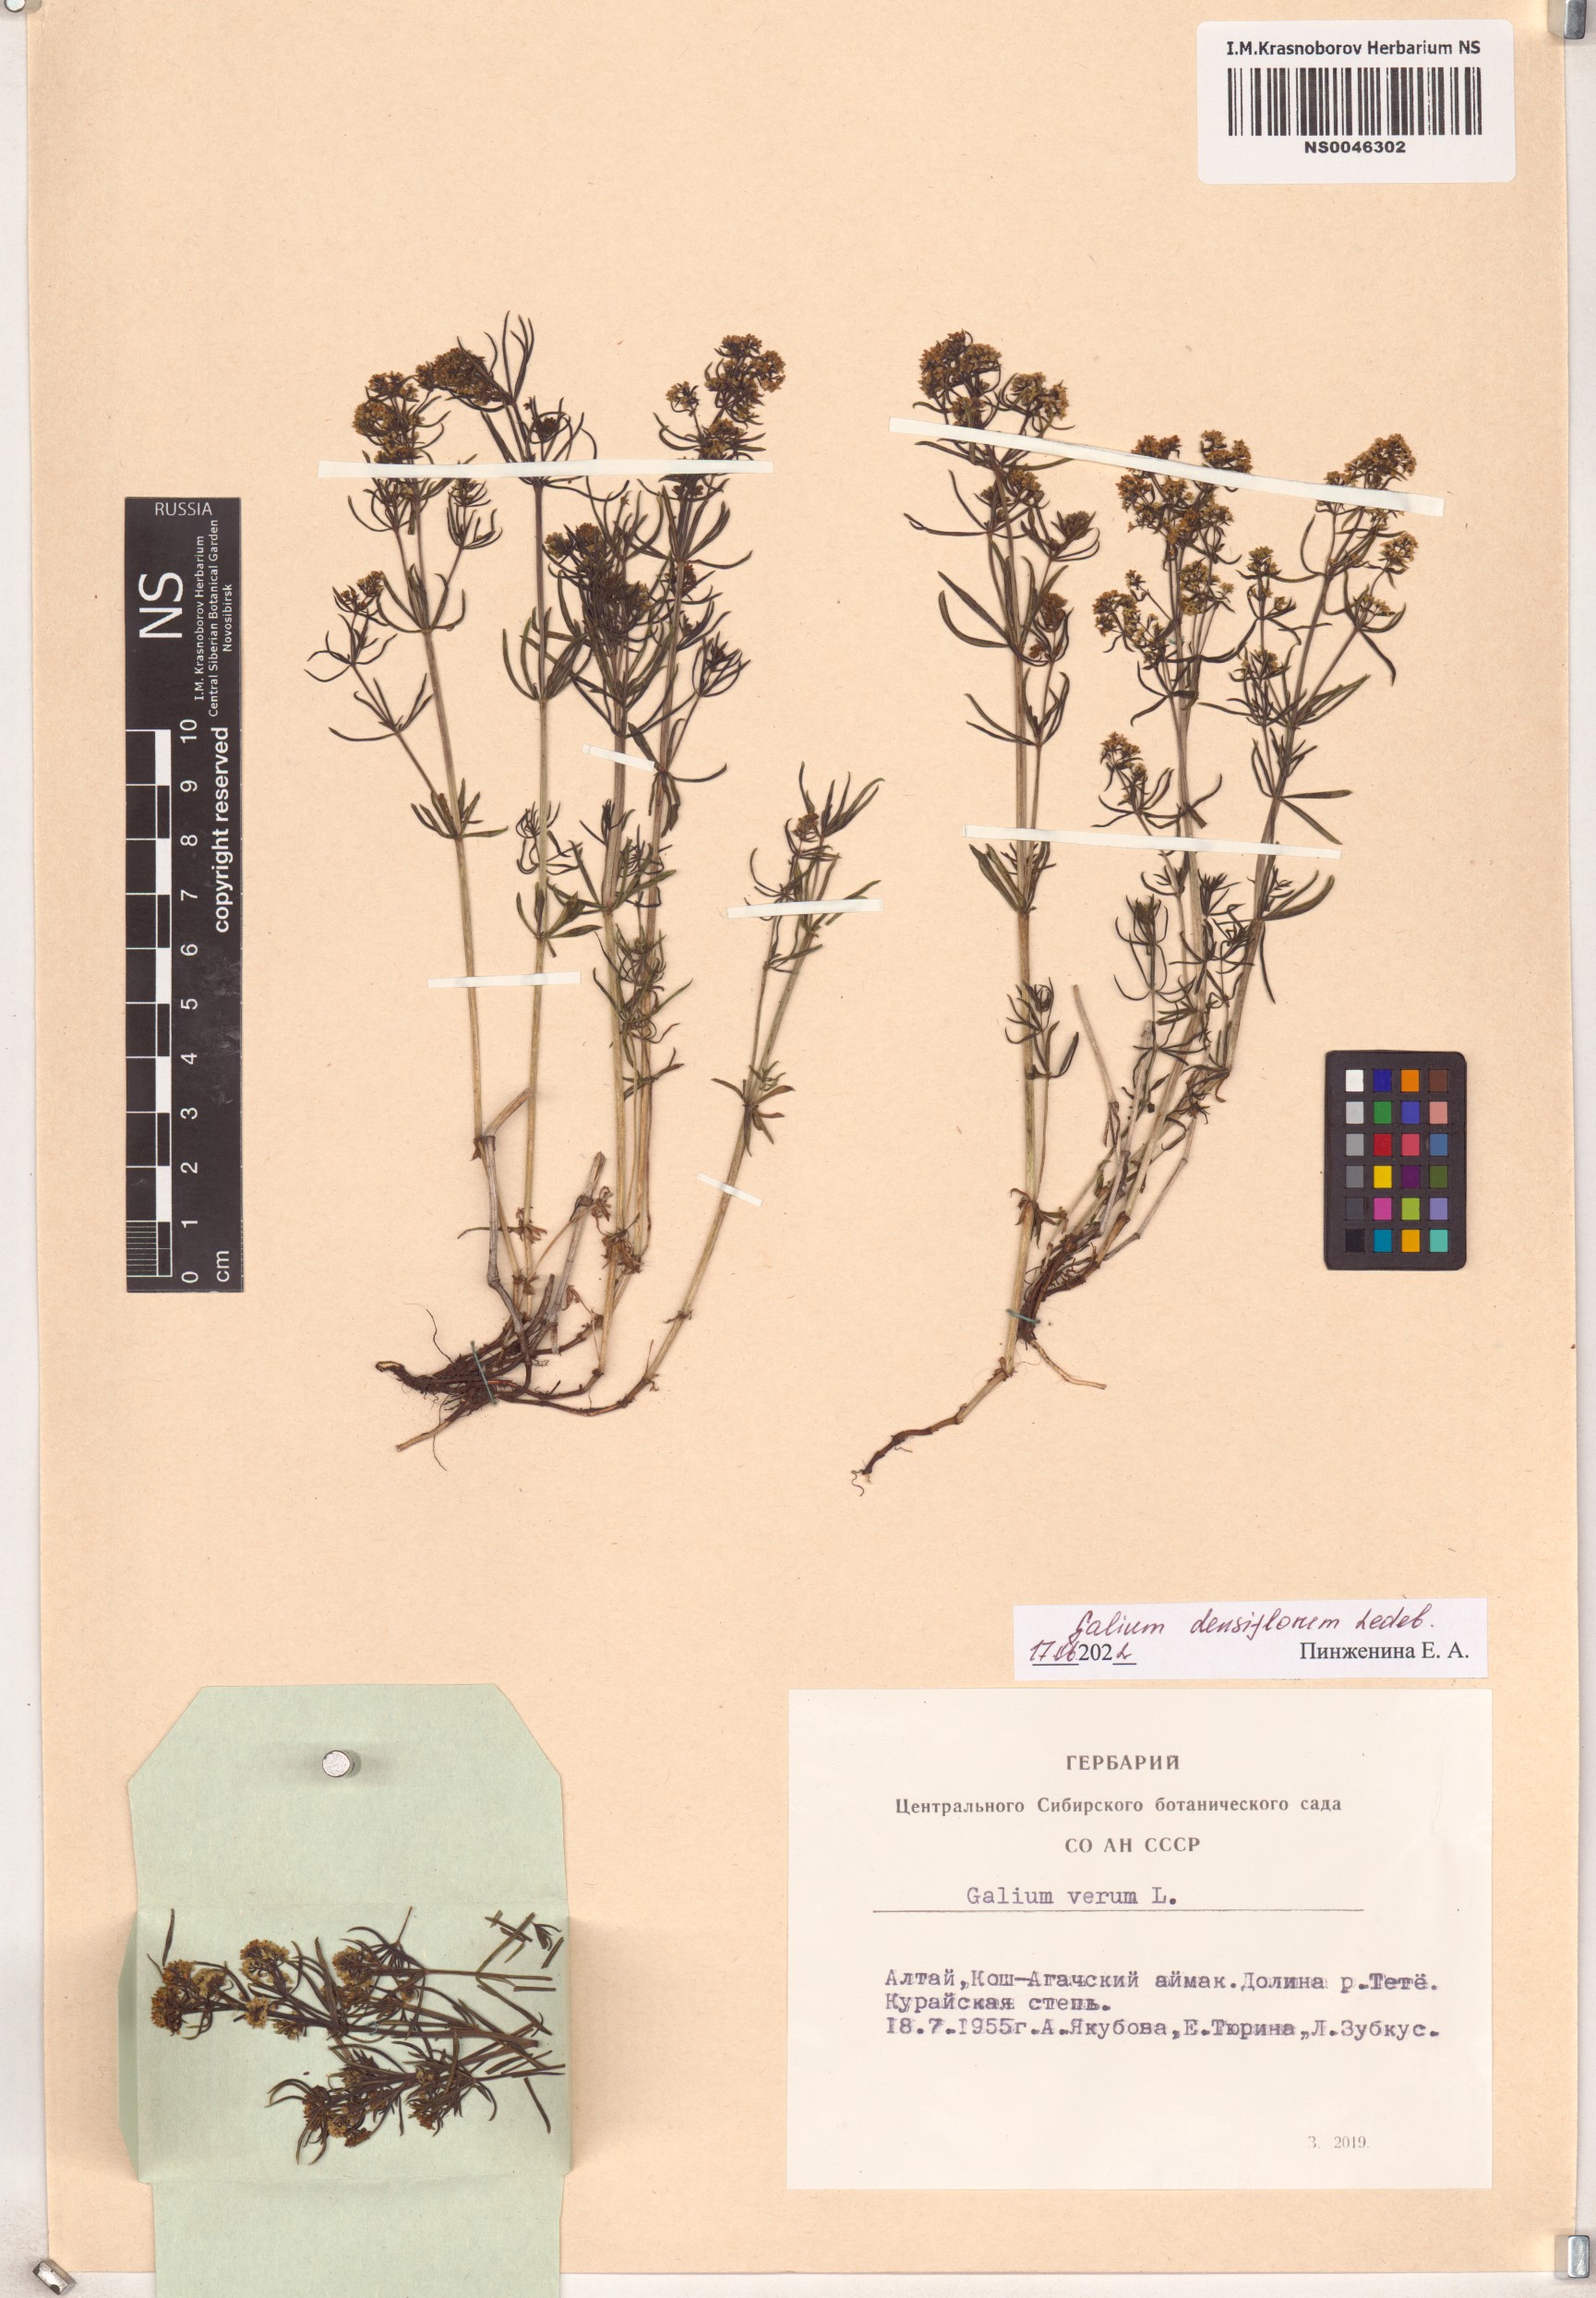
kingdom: Plantae
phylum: Tracheophyta
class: Magnoliopsida
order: Gentianales
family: Rubiaceae
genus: Galium
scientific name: Galium densiflorum
